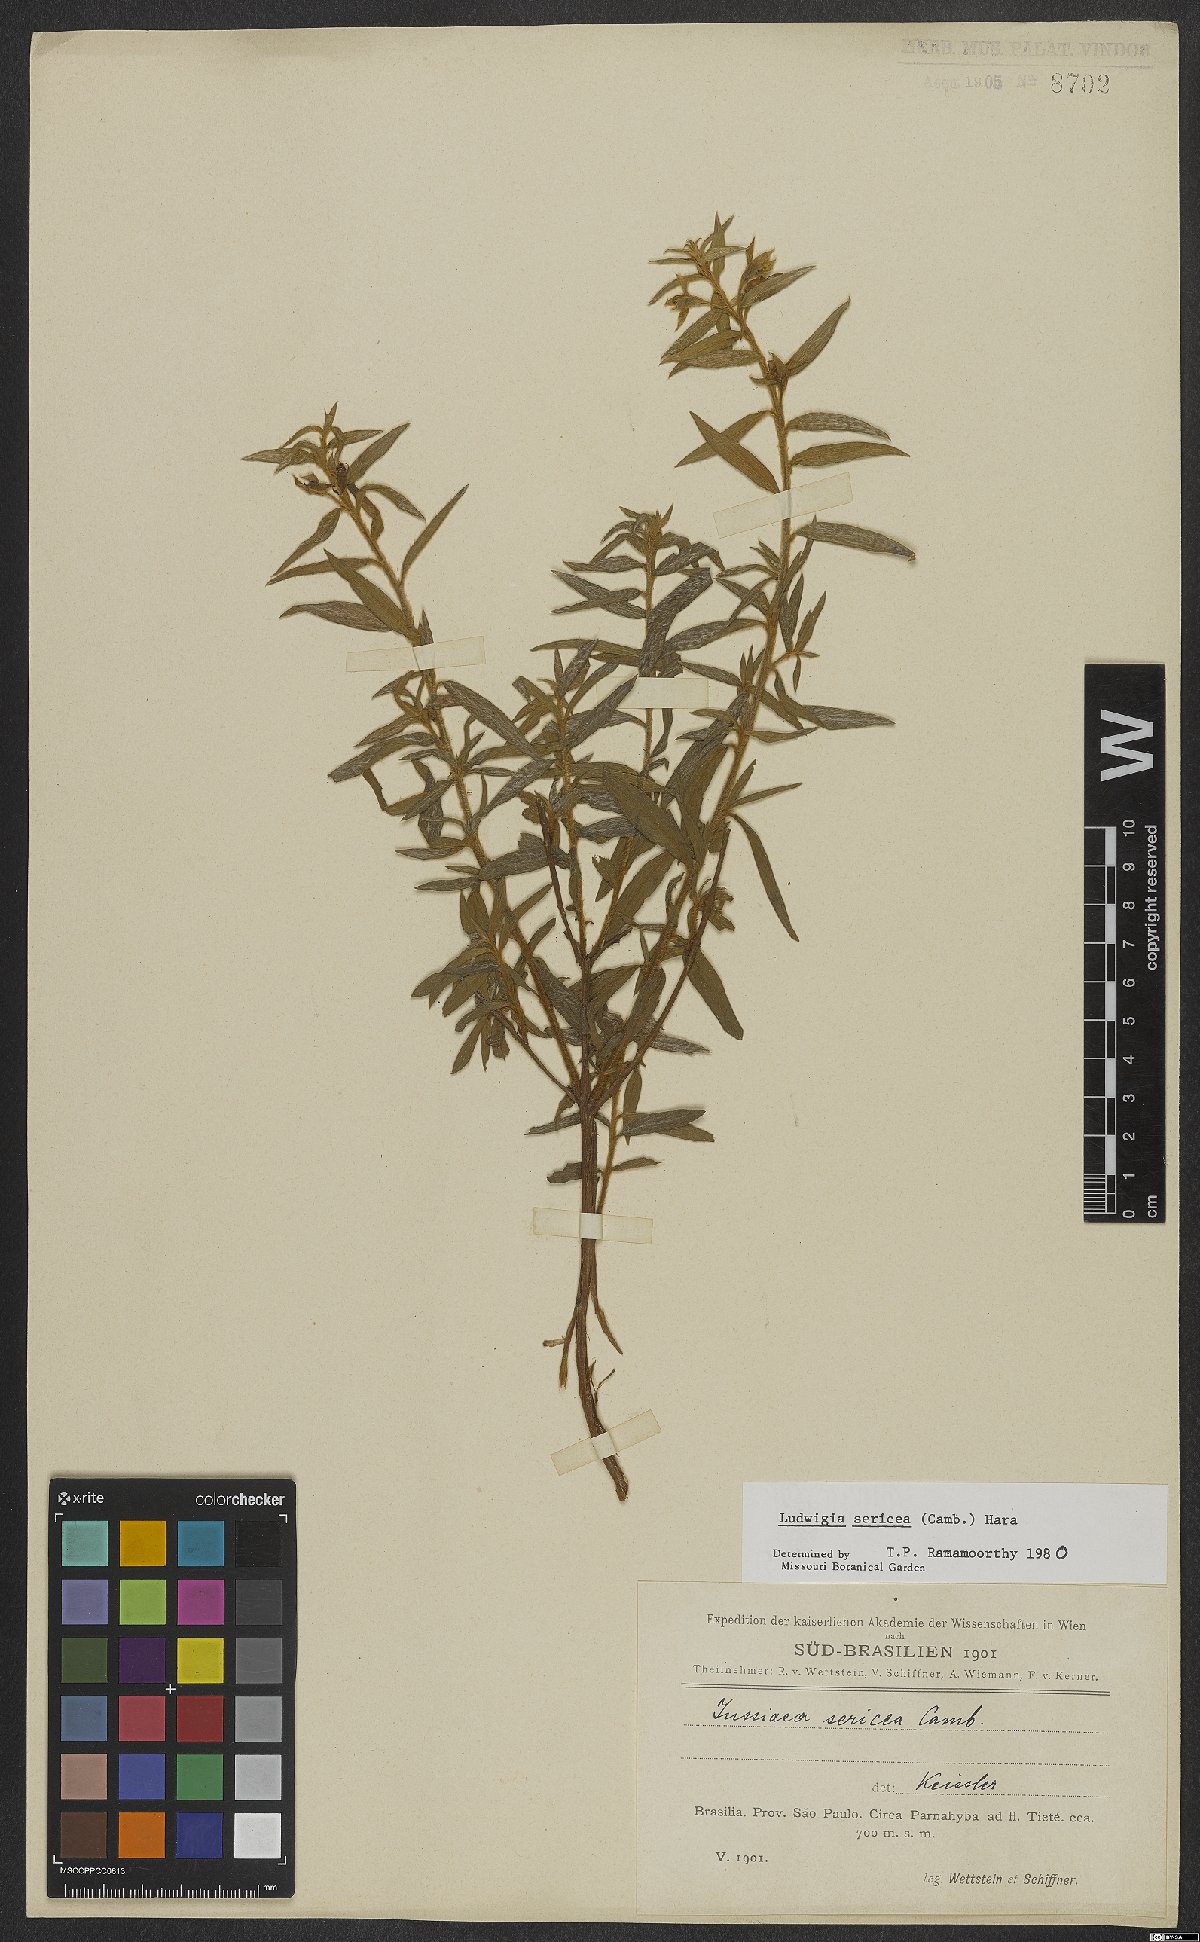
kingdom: Plantae
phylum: Tracheophyta
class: Magnoliopsida
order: Myrtales
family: Onagraceae
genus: Ludwigia
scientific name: Ludwigia sericea
